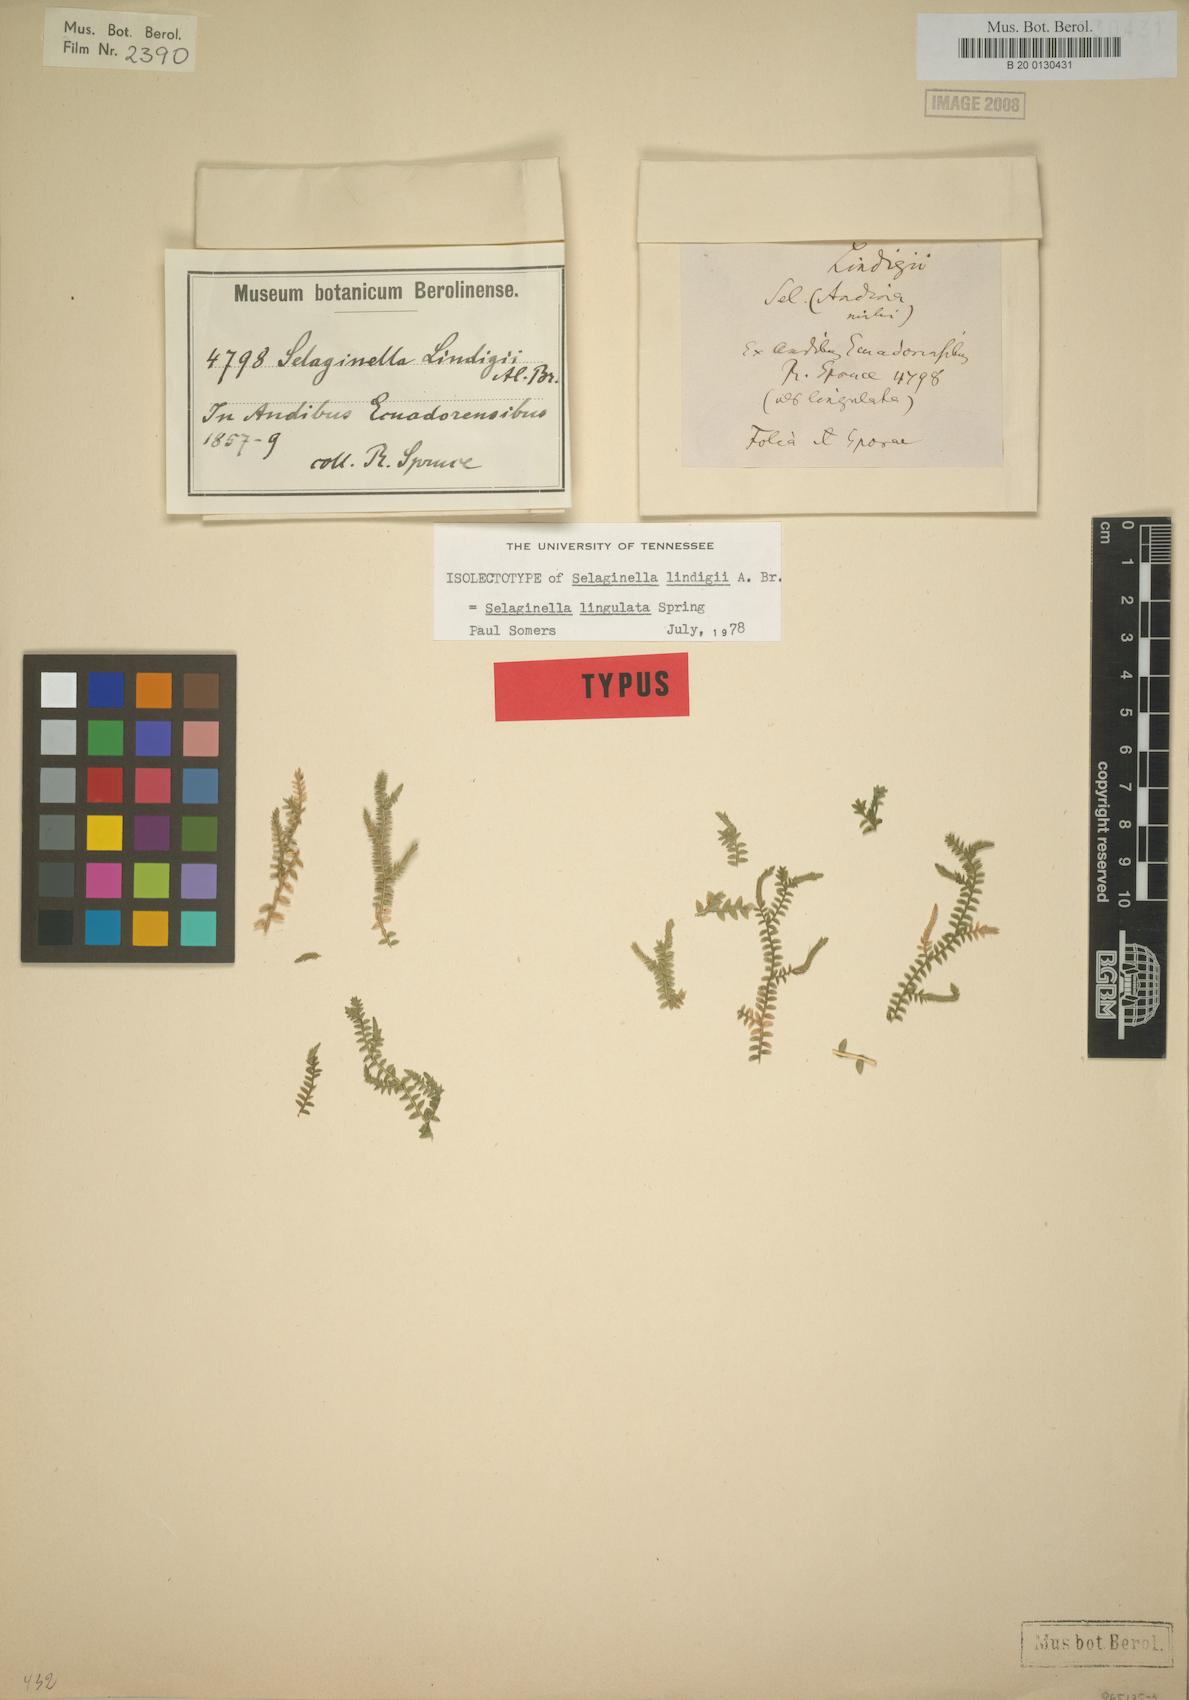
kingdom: Plantae
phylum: Tracheophyta
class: Lycopodiopsida
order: Selaginellales
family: Selaginellaceae
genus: Selaginella
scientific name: Selaginella lingulata
